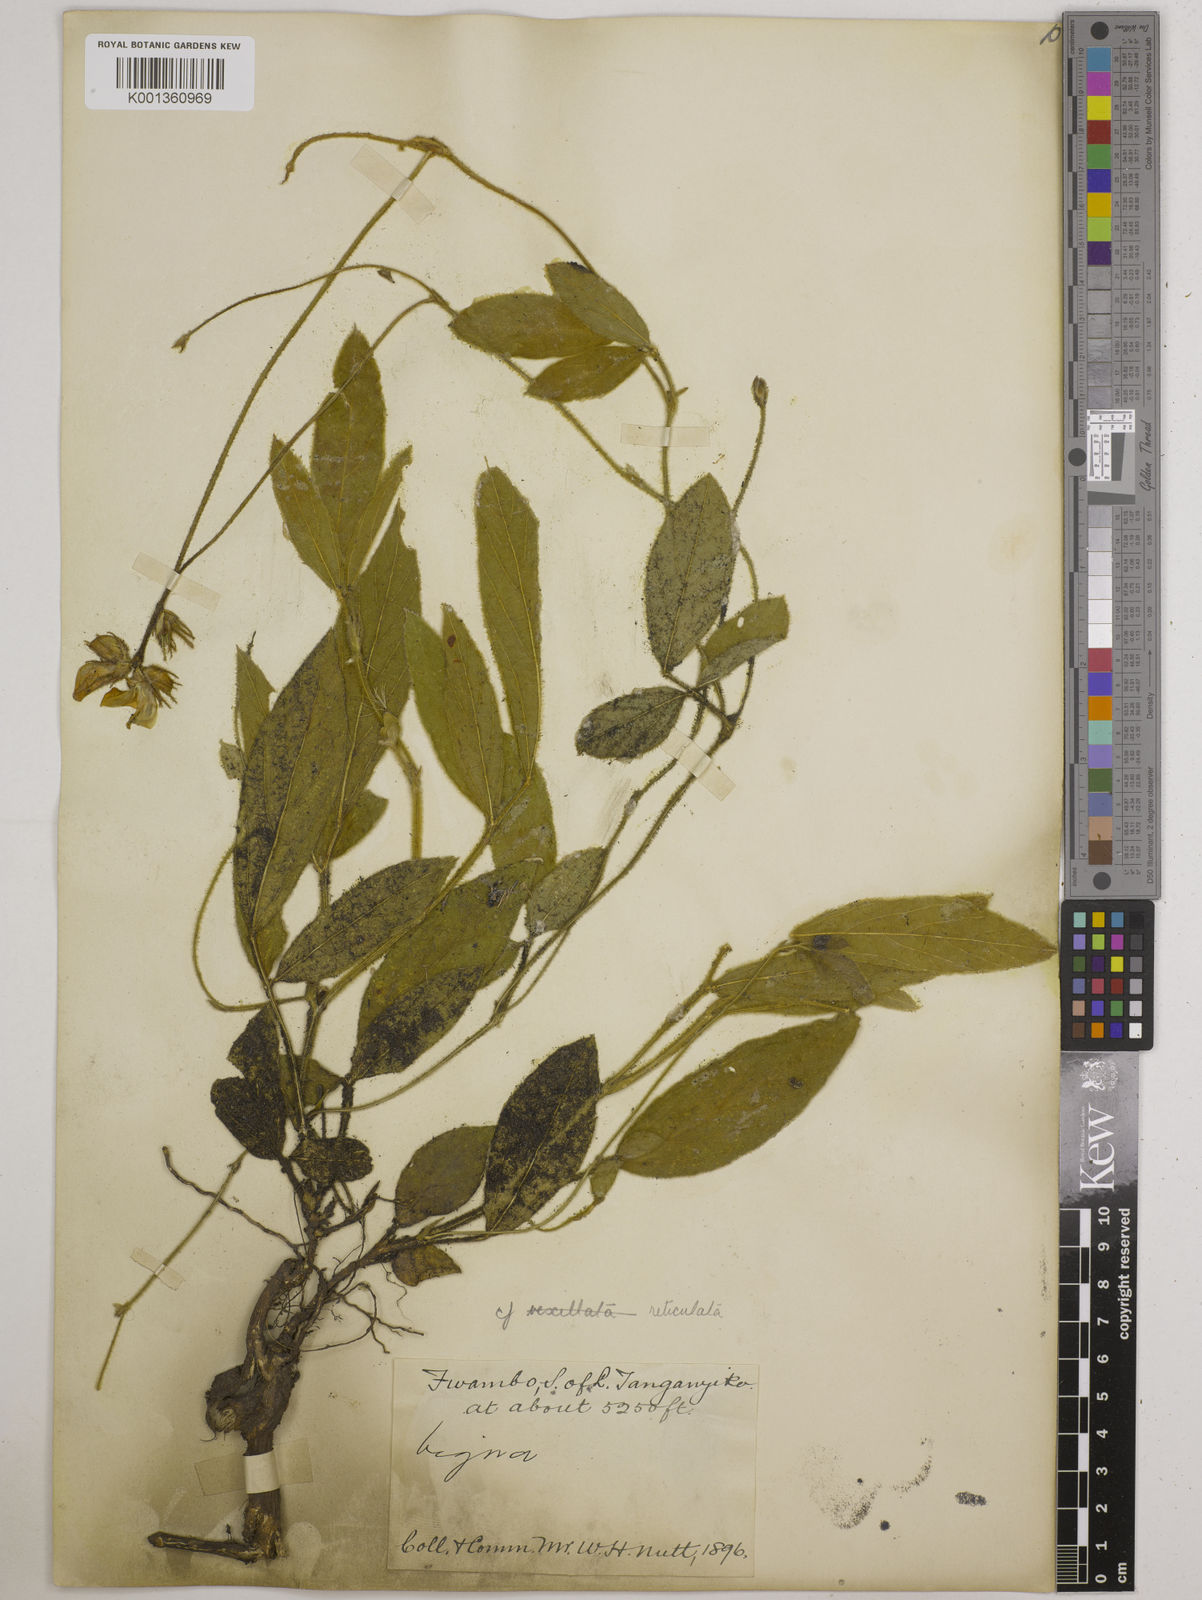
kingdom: Plantae
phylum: Tracheophyta
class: Magnoliopsida
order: Fabales
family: Fabaceae
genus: Vigna
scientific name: Vigna reticulata
